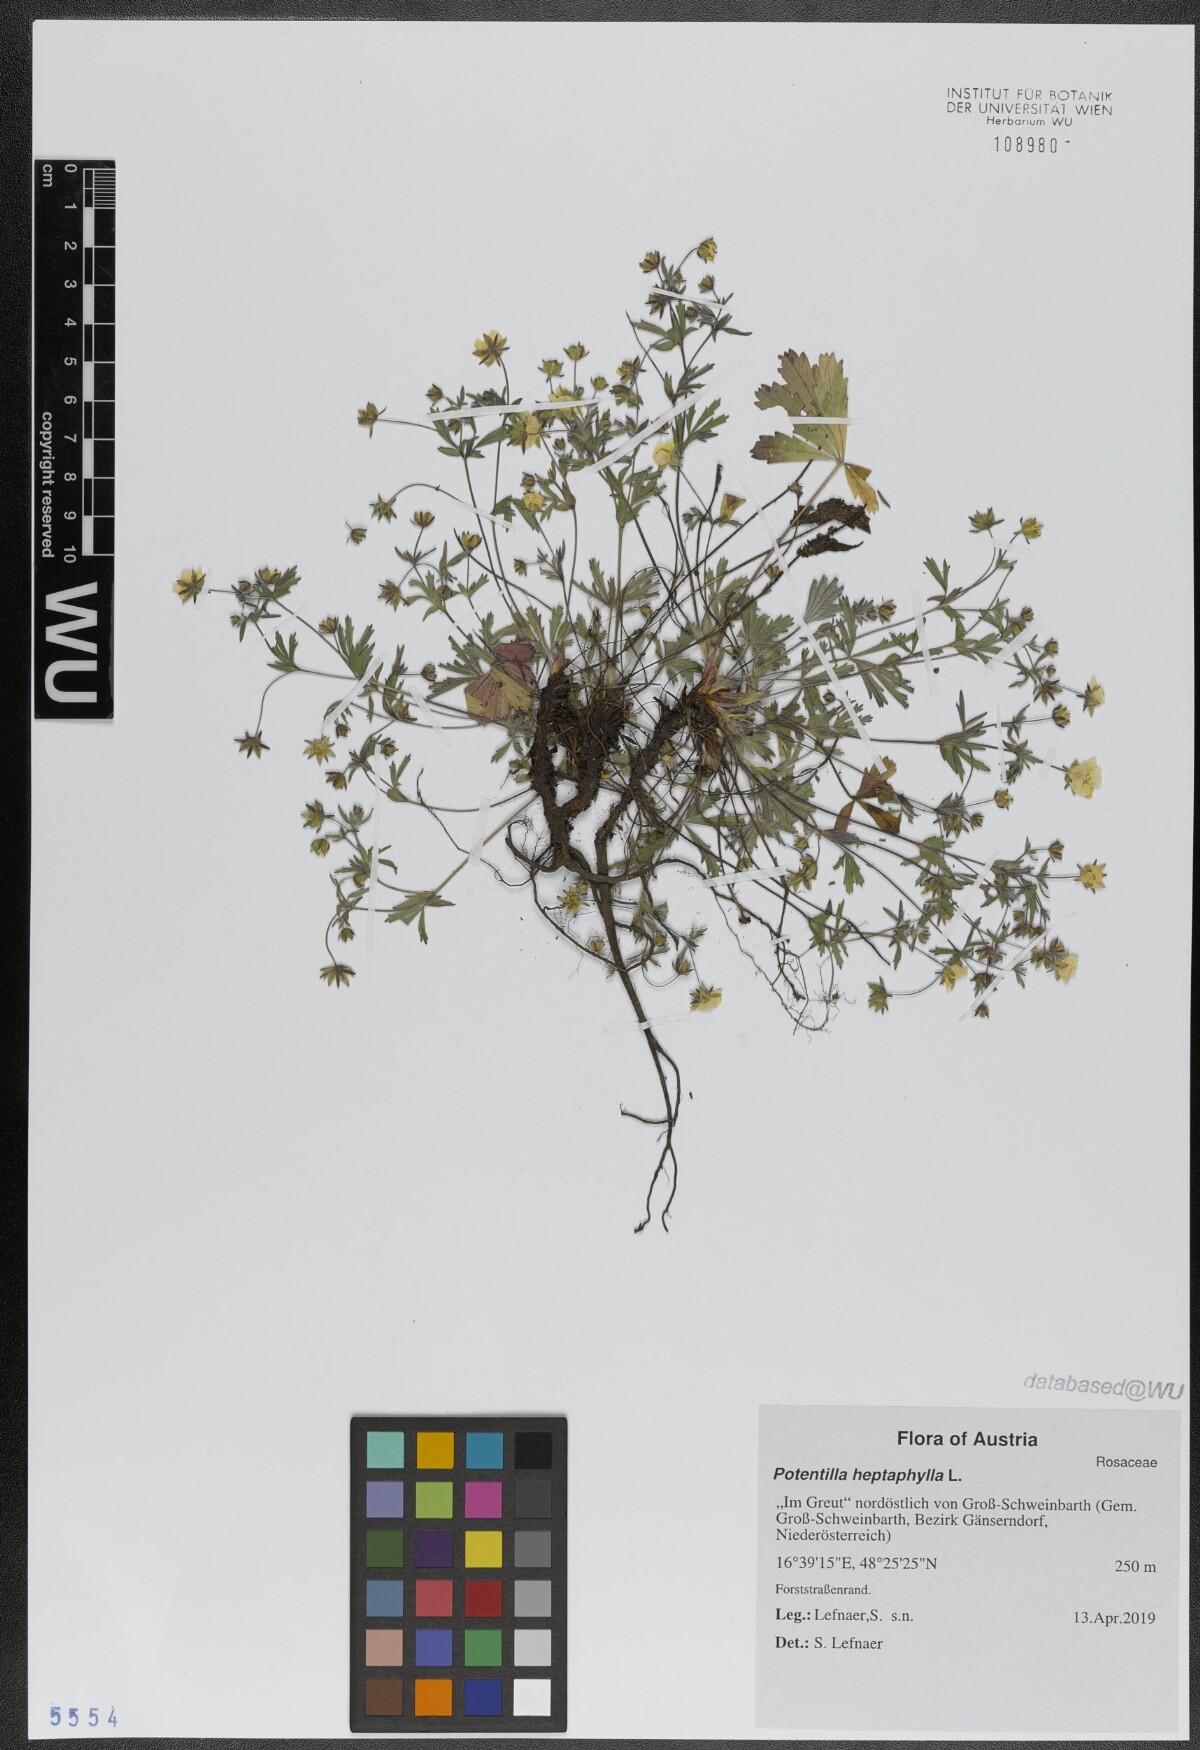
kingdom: Plantae
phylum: Tracheophyta
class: Magnoliopsida
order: Rosales
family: Rosaceae
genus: Potentilla
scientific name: Potentilla heptaphylla
